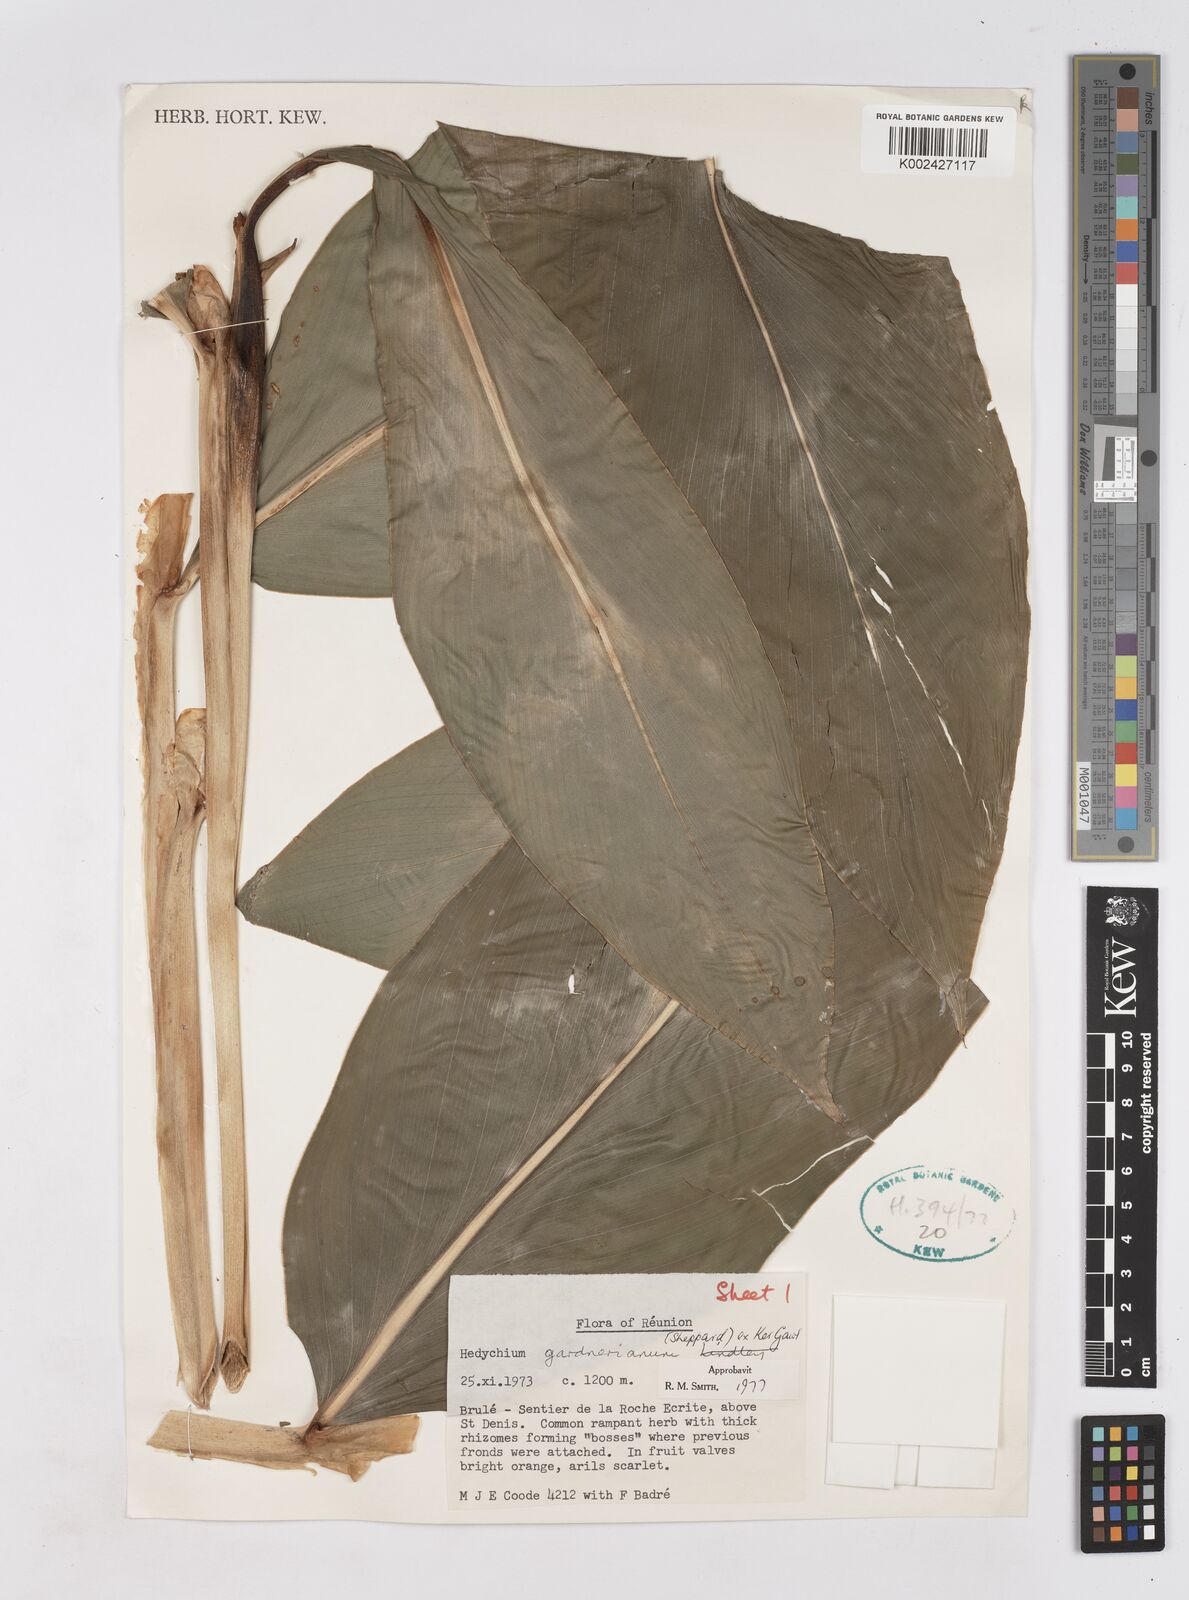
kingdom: Plantae
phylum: Tracheophyta
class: Liliopsida
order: Zingiberales
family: Zingiberaceae
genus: Hedychium
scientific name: Hedychium gardnerianum
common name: Himalayan ginger
